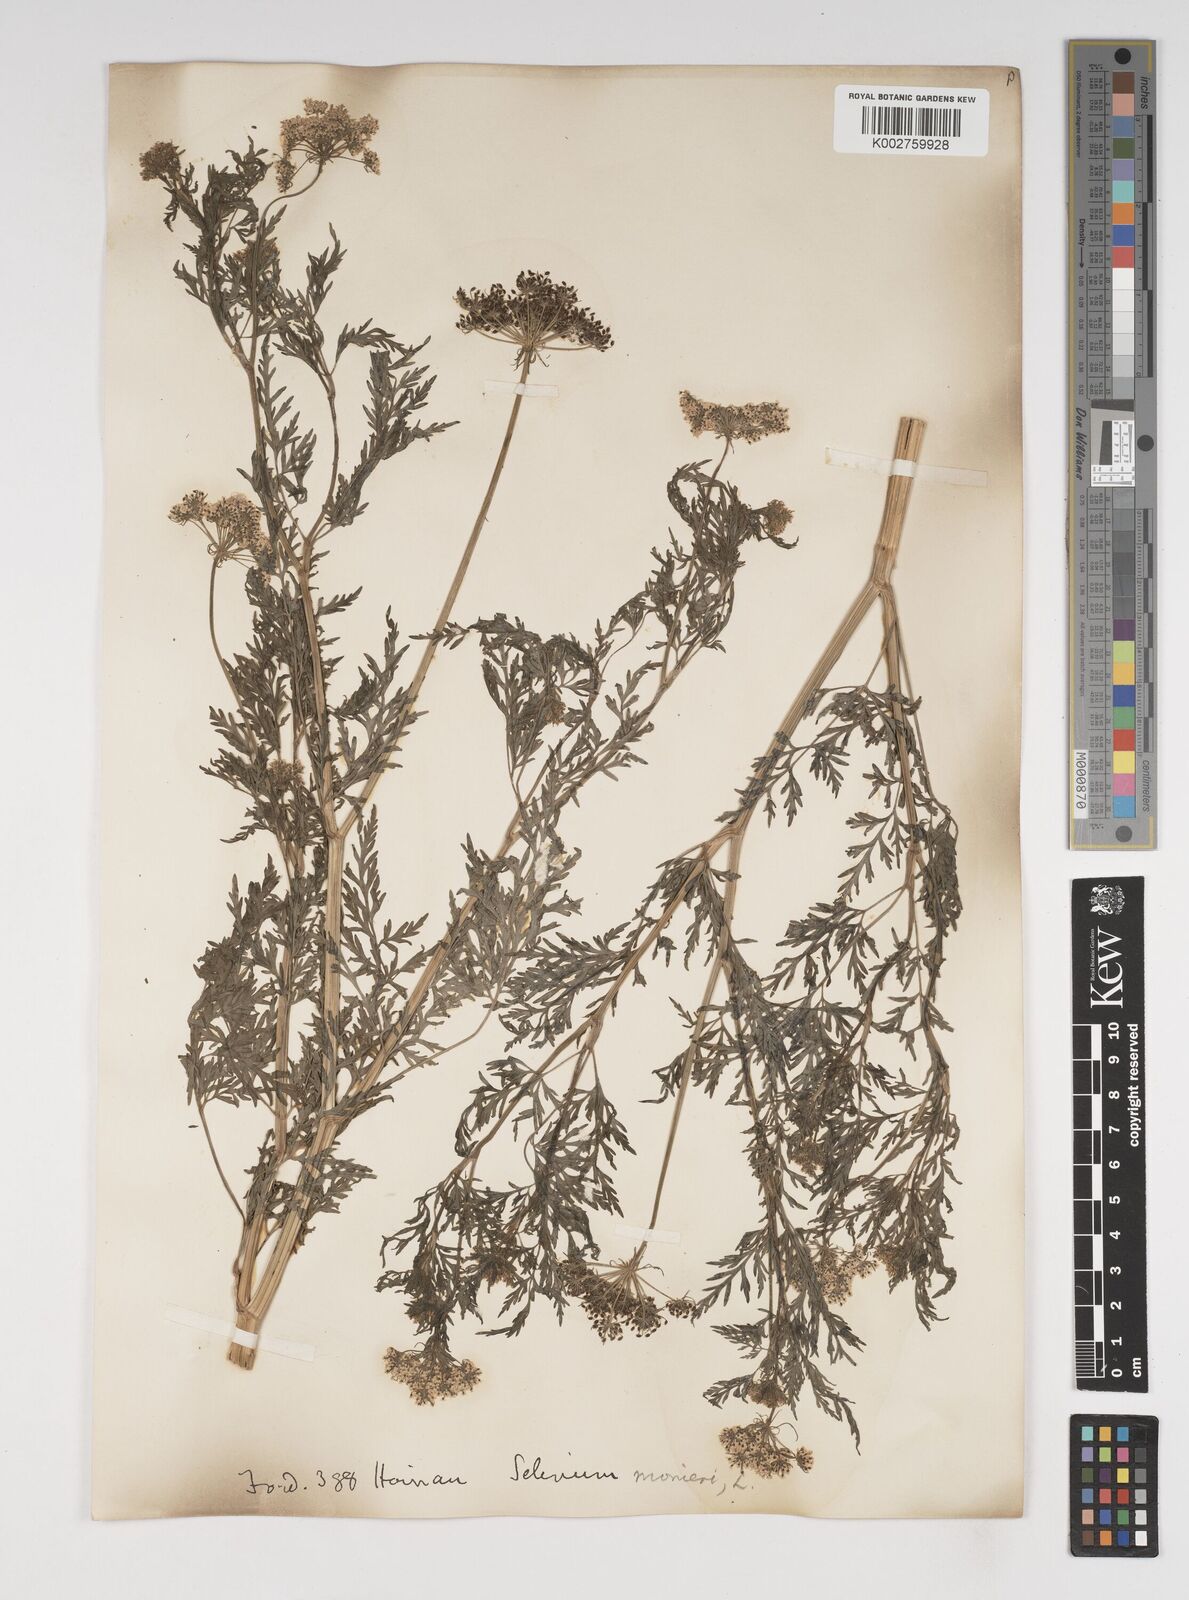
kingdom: Plantae
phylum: Tracheophyta
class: Magnoliopsida
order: Apiales
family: Apiaceae
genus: Cnidium
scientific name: Cnidium monnieri
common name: Monnier's snowparsley
